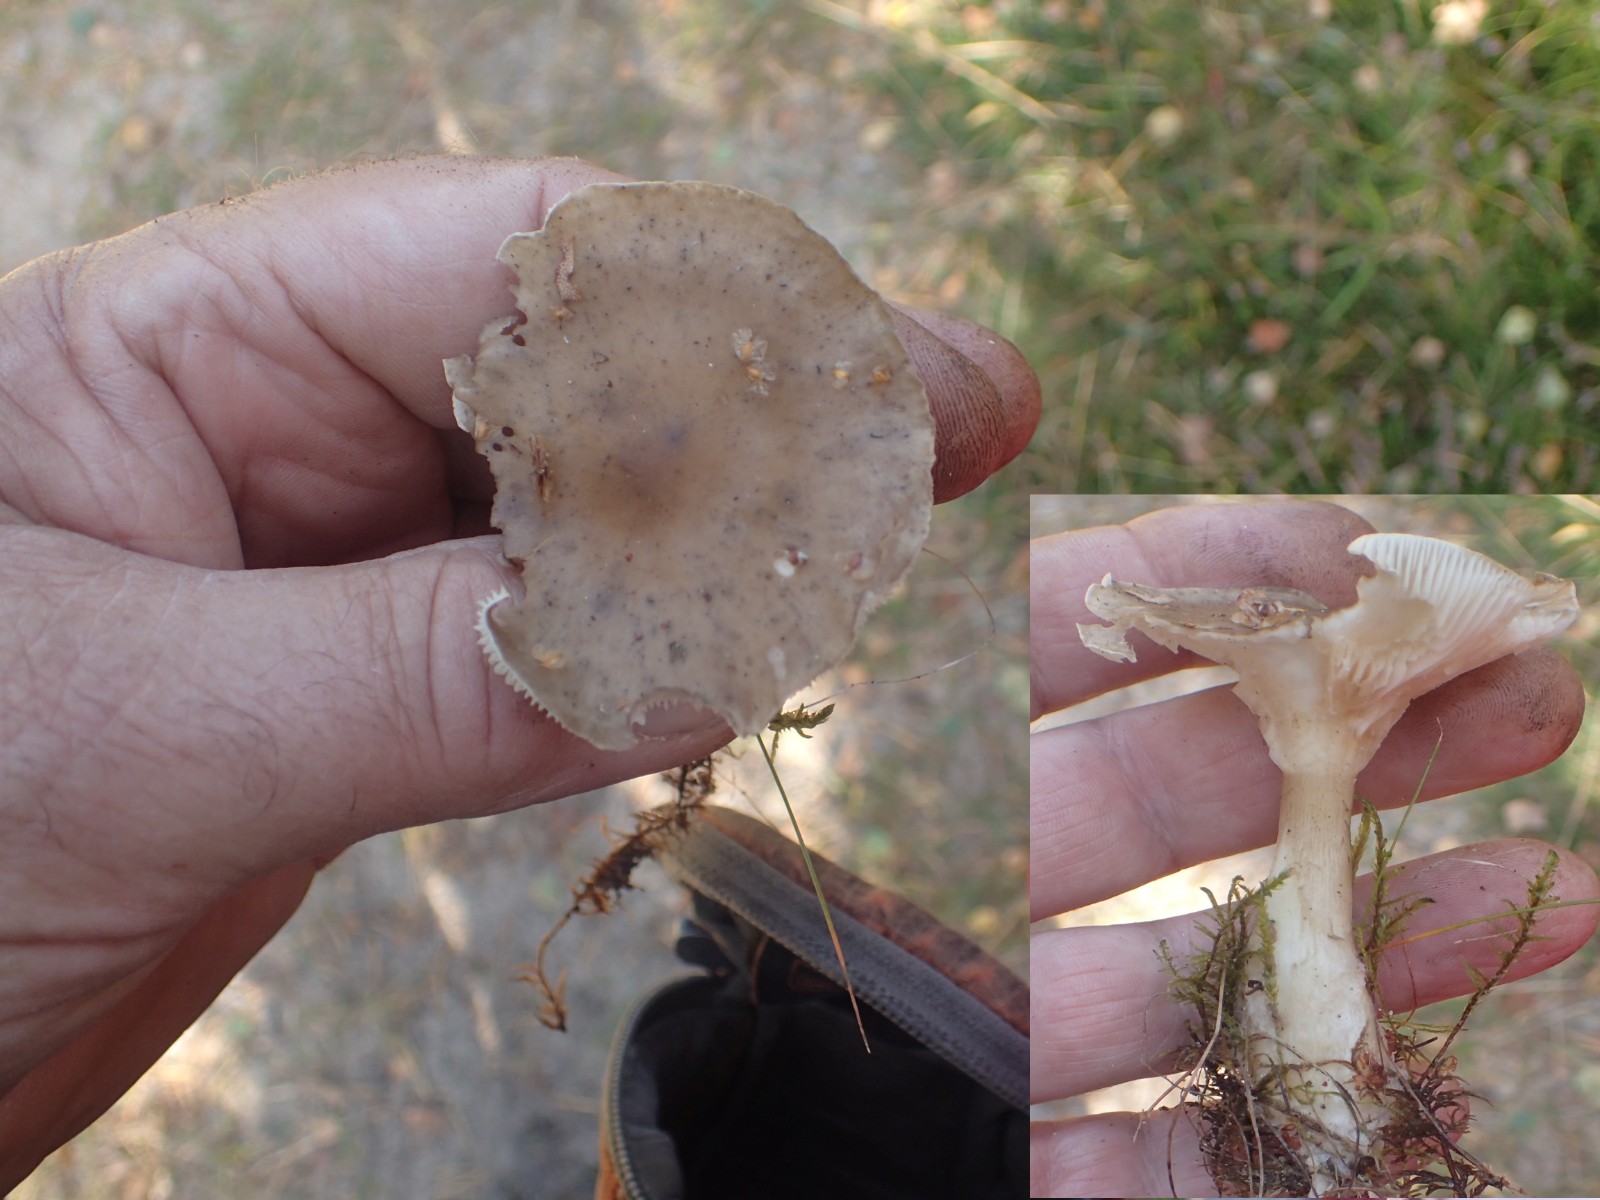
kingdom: Fungi
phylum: Basidiomycota
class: Agaricomycetes
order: Agaricales
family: Hygrophoraceae
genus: Ampulloclitocybe
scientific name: Ampulloclitocybe clavipes
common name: køllefod
